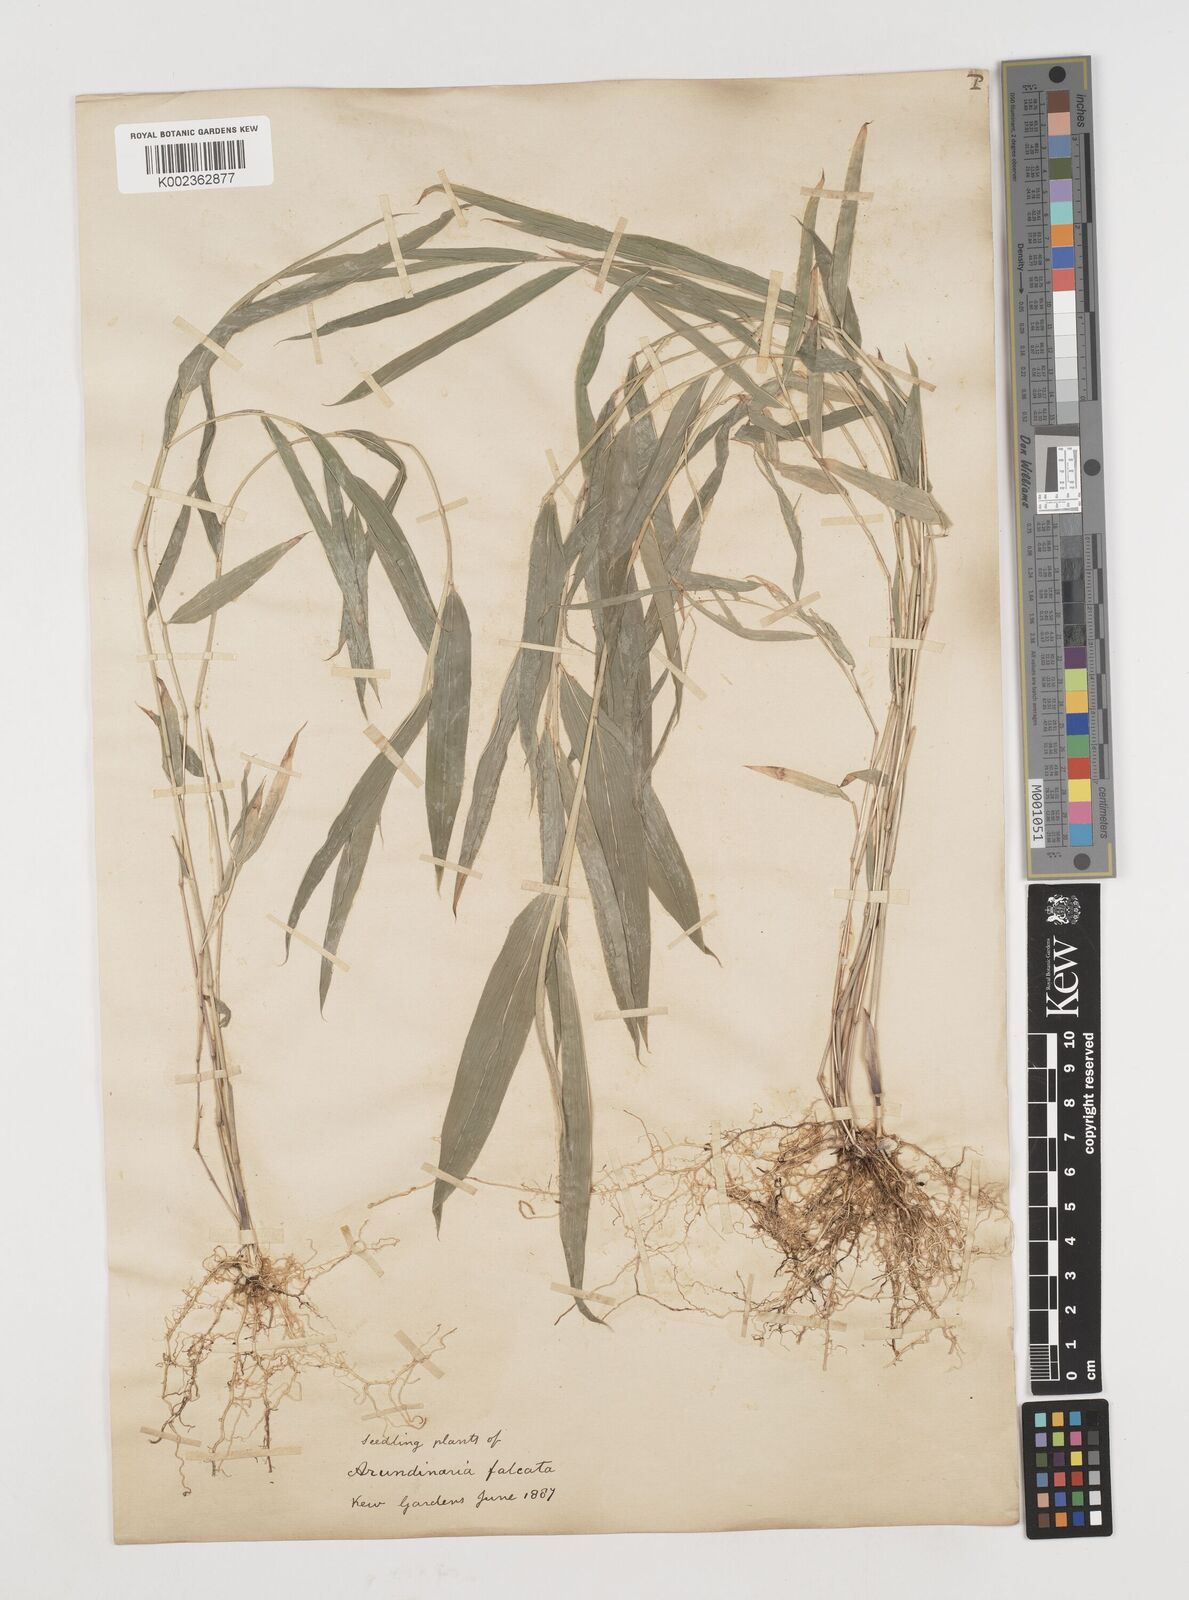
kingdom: Plantae
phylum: Tracheophyta
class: Liliopsida
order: Poales
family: Poaceae
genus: Himalayacalamus
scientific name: Himalayacalamus hookerianus
